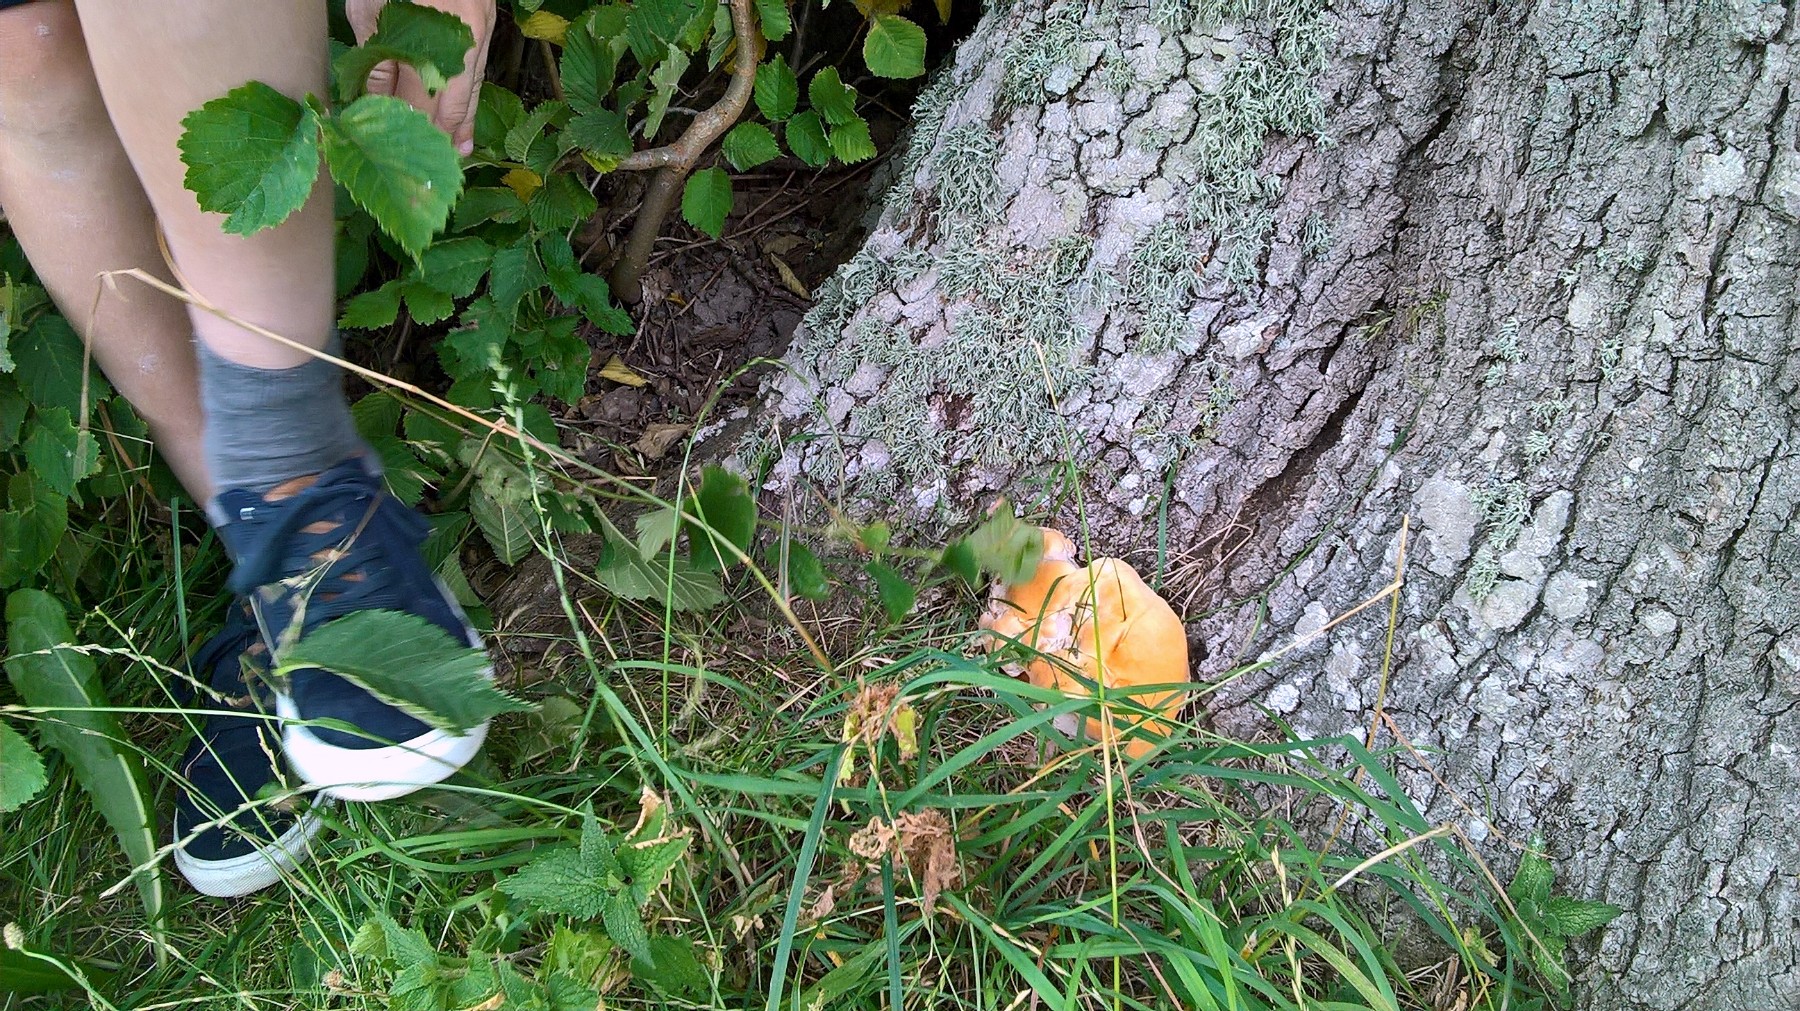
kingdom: Fungi
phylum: Basidiomycota
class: Agaricomycetes
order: Polyporales
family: Polyporaceae
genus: Ganoderma
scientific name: Ganoderma resinaceum
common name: gyldenbrun lakporesvamp
